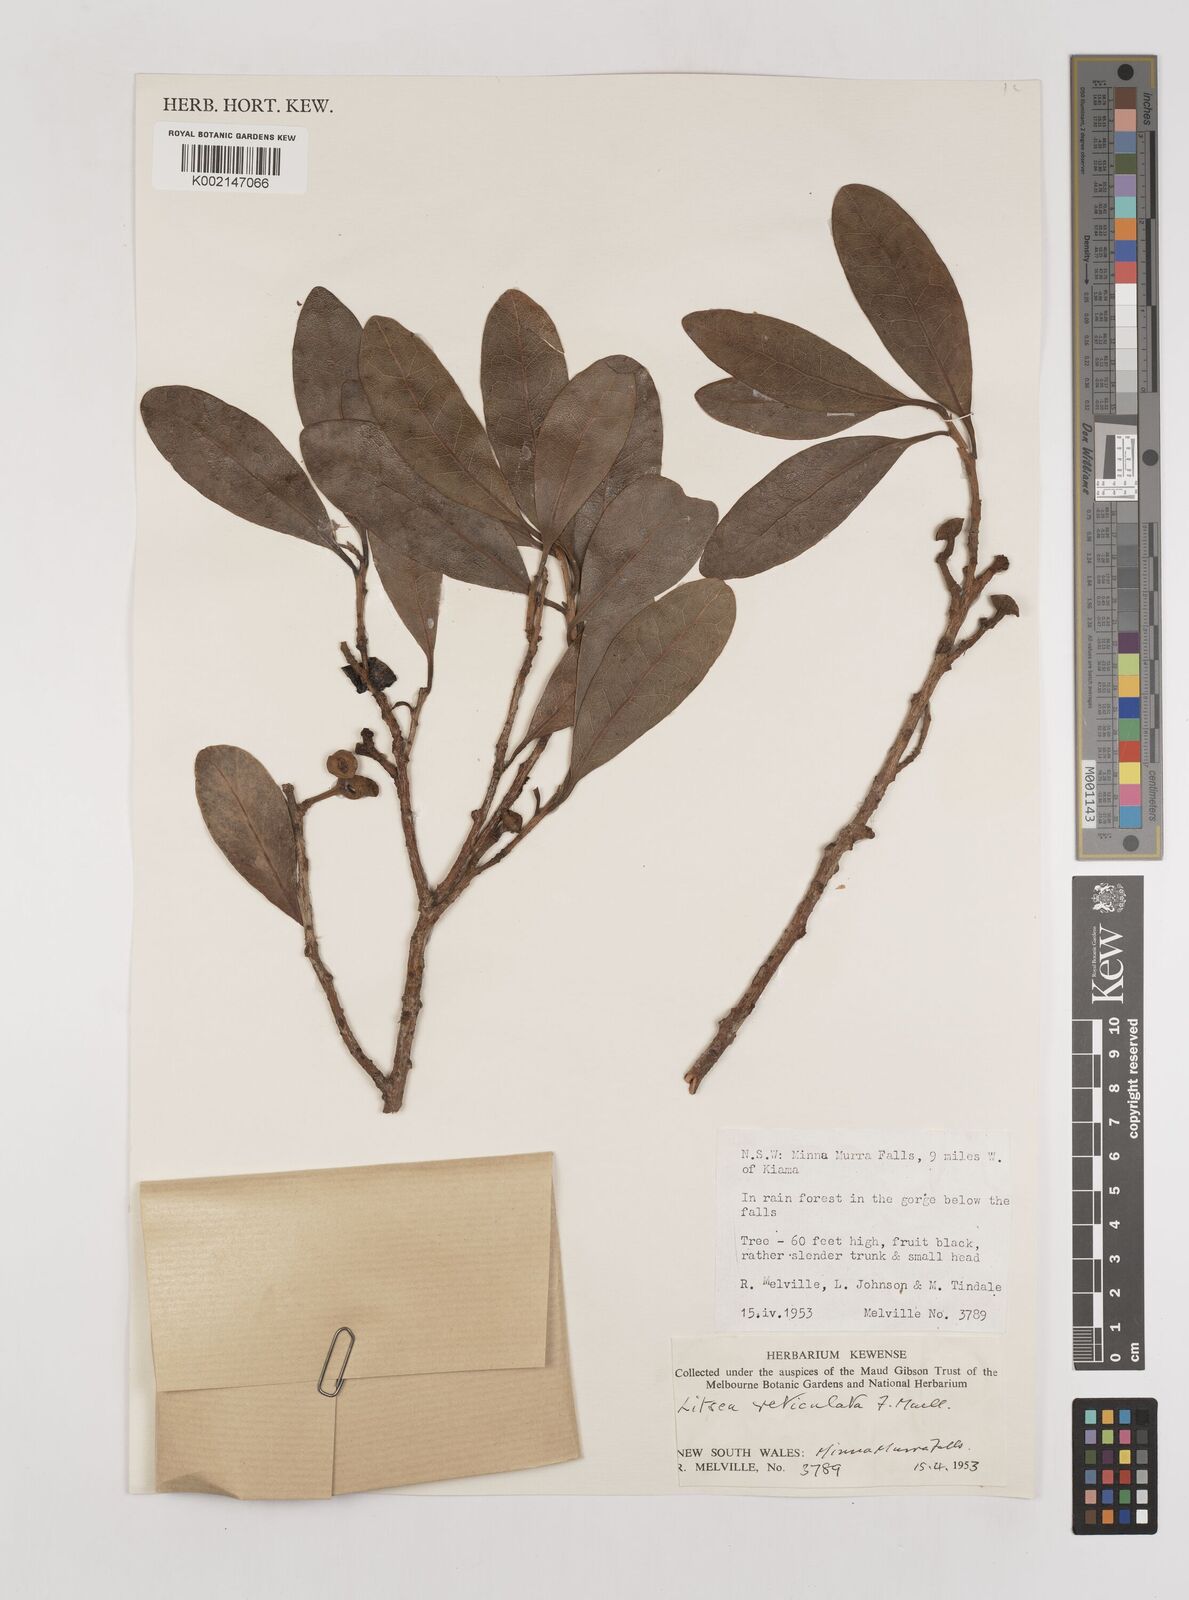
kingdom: Plantae
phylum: Tracheophyta
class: Magnoliopsida
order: Laurales
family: Lauraceae
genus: Litsea
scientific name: Litsea reticulata
